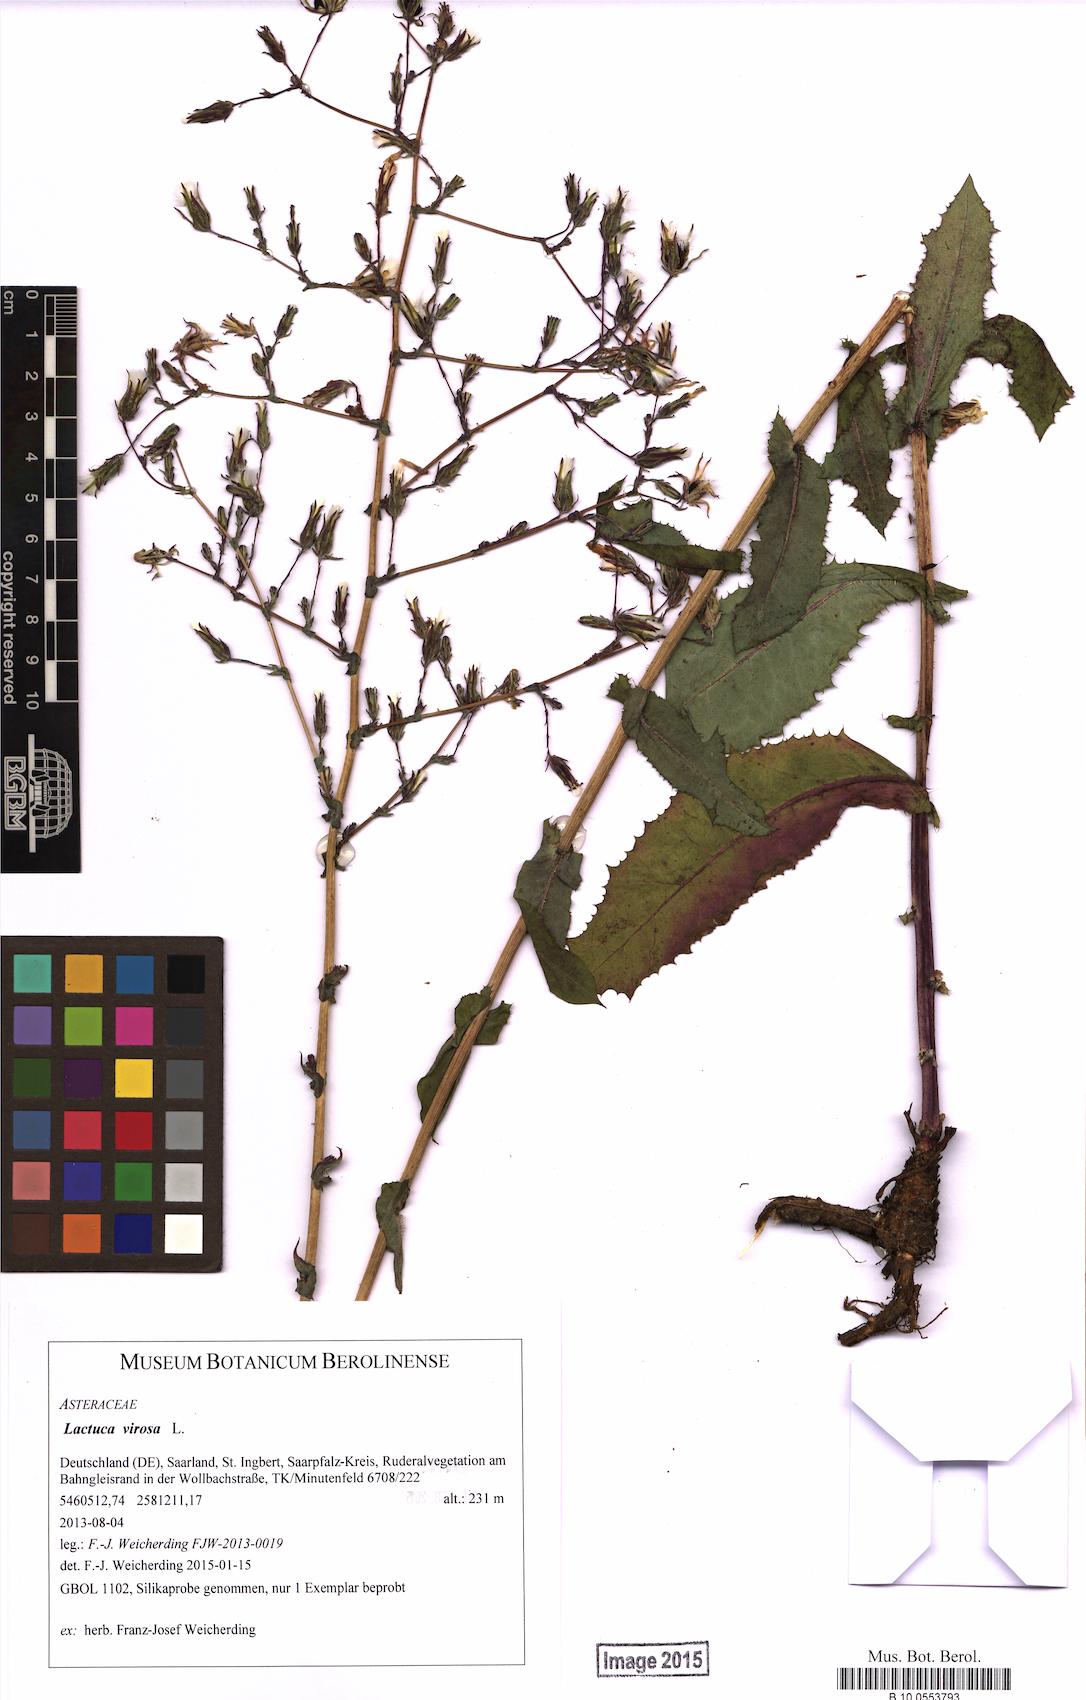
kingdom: Plantae
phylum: Tracheophyta
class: Magnoliopsida
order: Asterales
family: Asteraceae
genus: Lactuca
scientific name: Lactuca virosa
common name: Great lettuce
